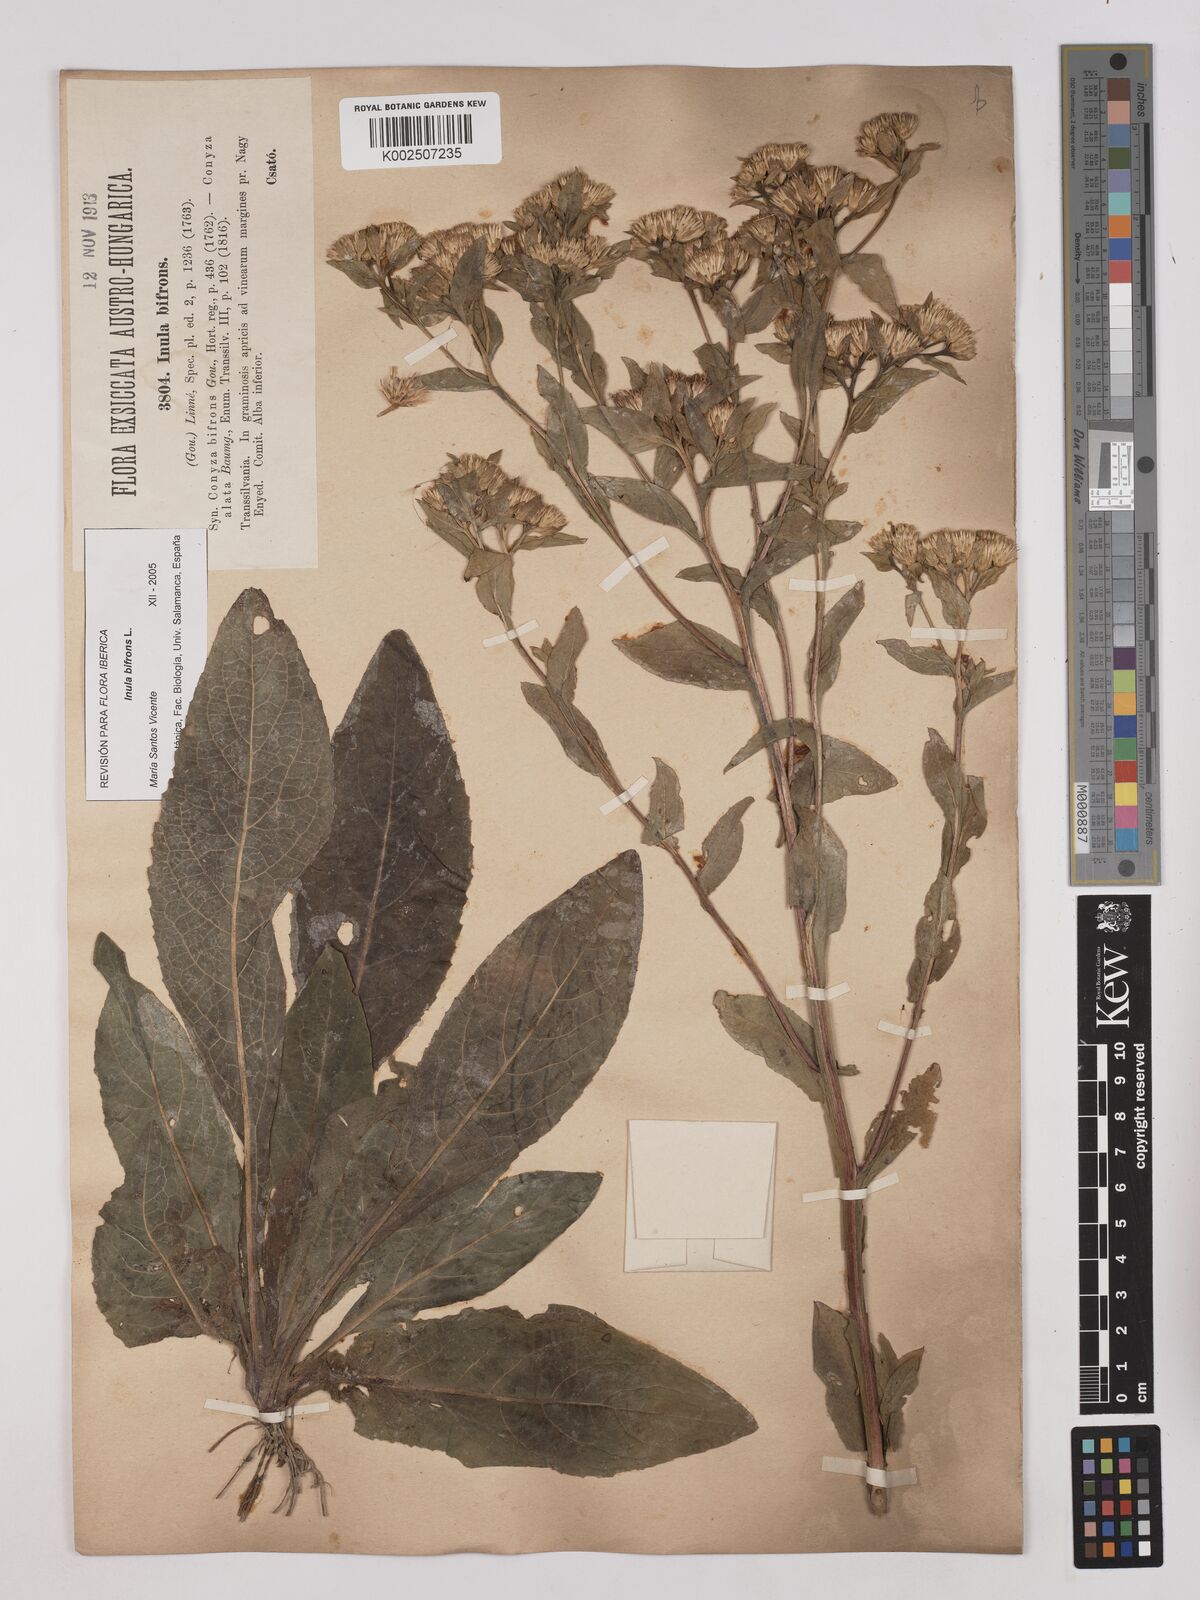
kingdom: Plantae
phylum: Tracheophyta
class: Magnoliopsida
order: Asterales
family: Asteraceae
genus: Pentanema
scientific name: Pentanema bifrons
